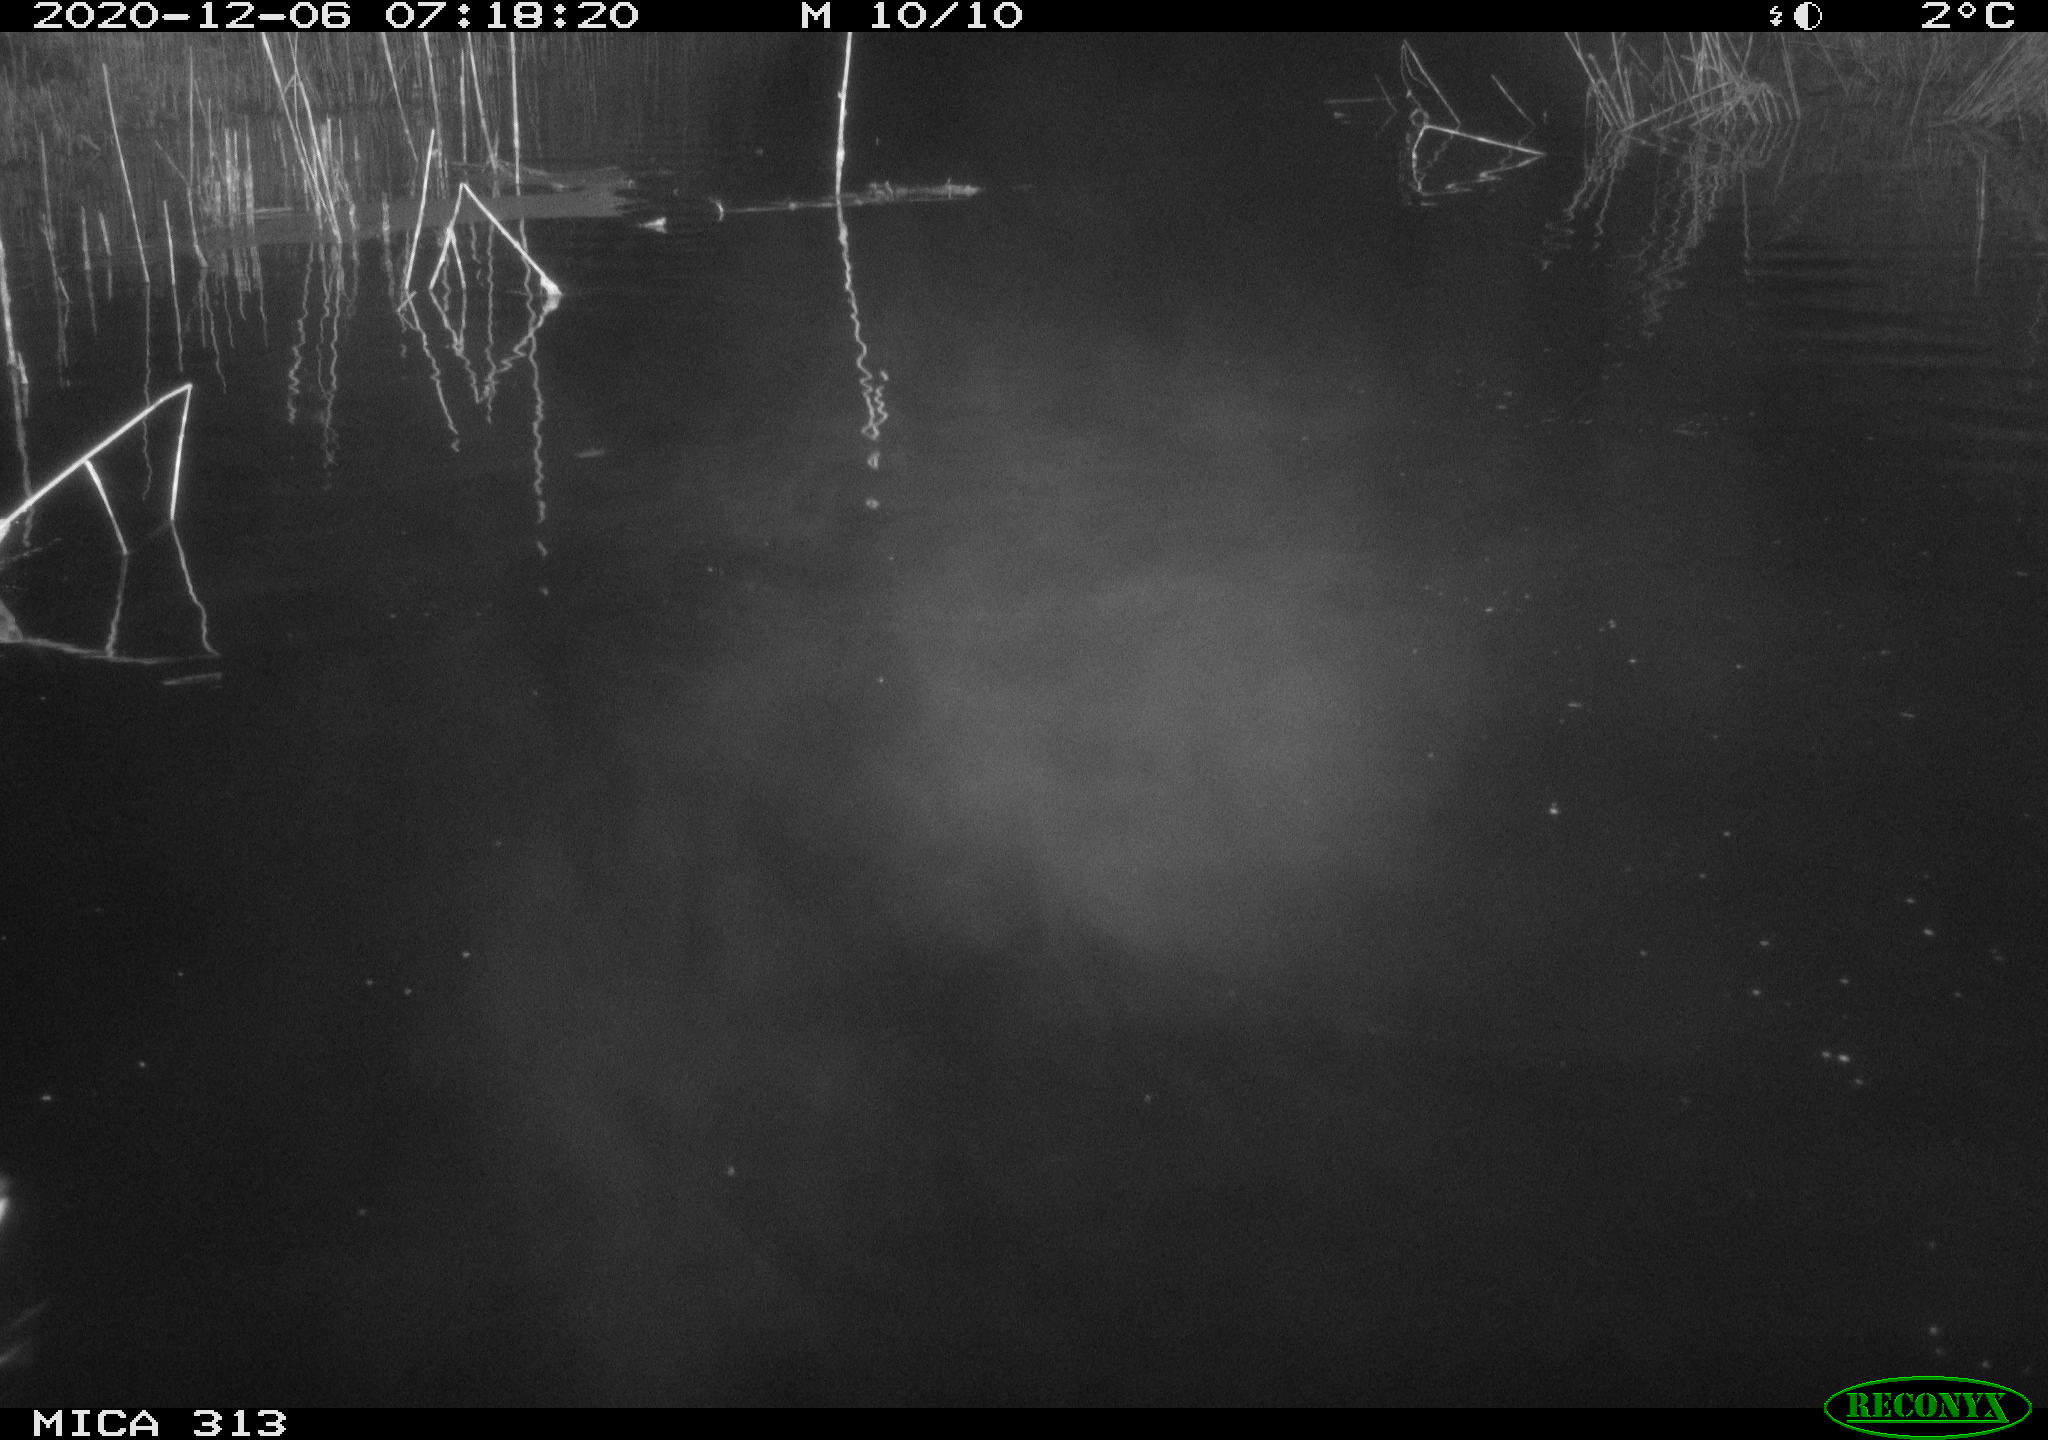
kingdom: Animalia
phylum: Chordata
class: Aves
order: Gruiformes
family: Rallidae
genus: Gallinula
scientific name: Gallinula chloropus
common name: Common moorhen
